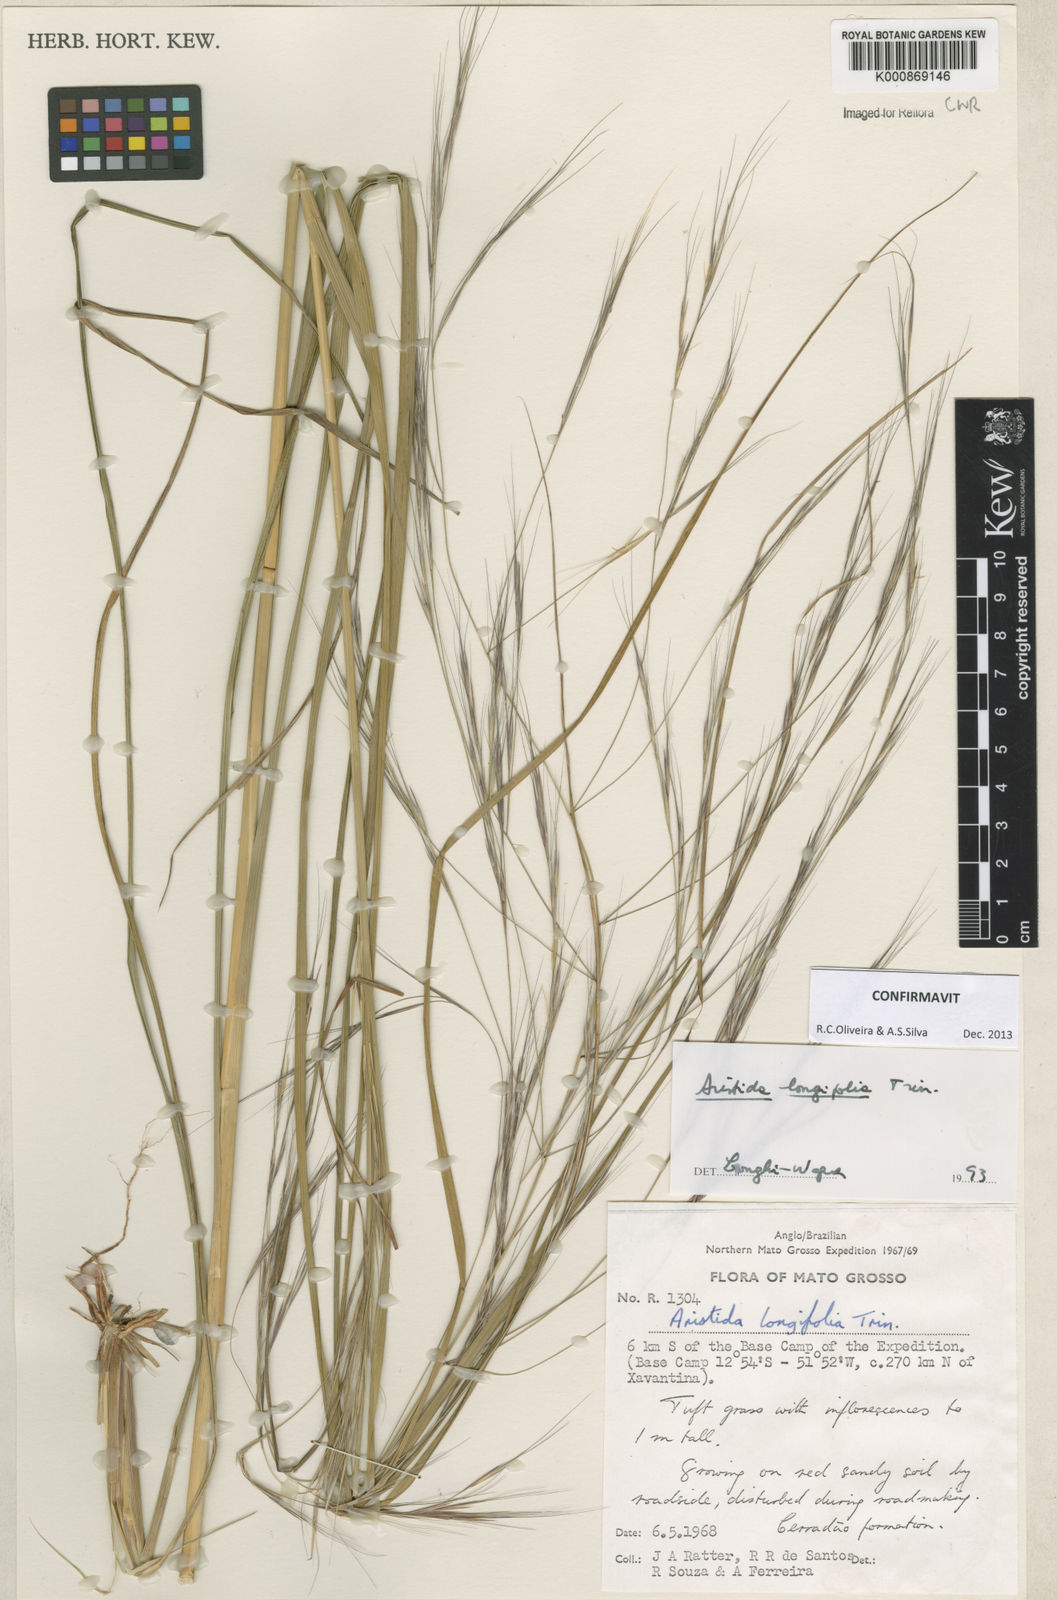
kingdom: Plantae
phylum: Tracheophyta
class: Liliopsida
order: Poales
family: Poaceae
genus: Aristida
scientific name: Aristida longifolia
